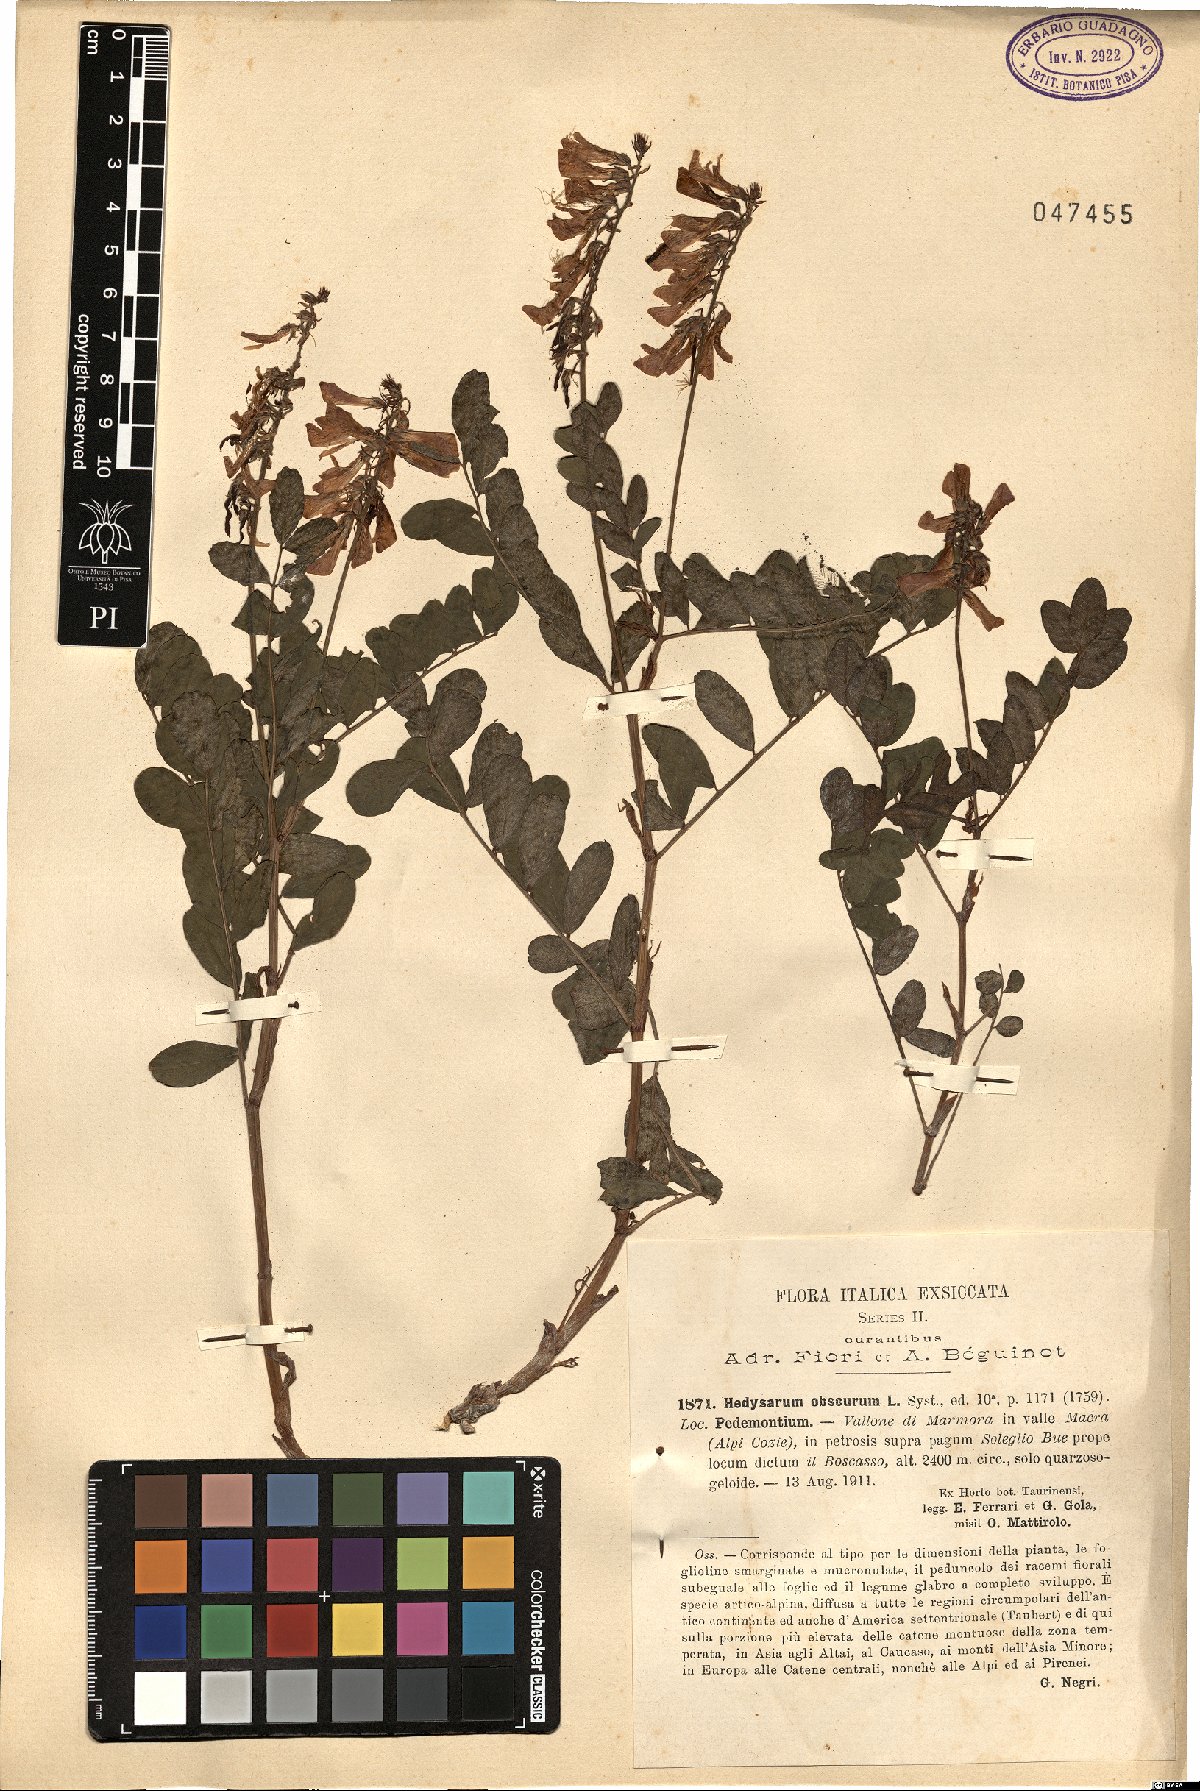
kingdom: Plantae
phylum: Tracheophyta
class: Magnoliopsida
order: Fabales
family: Fabaceae
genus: Hedysarum
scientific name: Hedysarum hedysaroides
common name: Alpine french-honeysuckle
